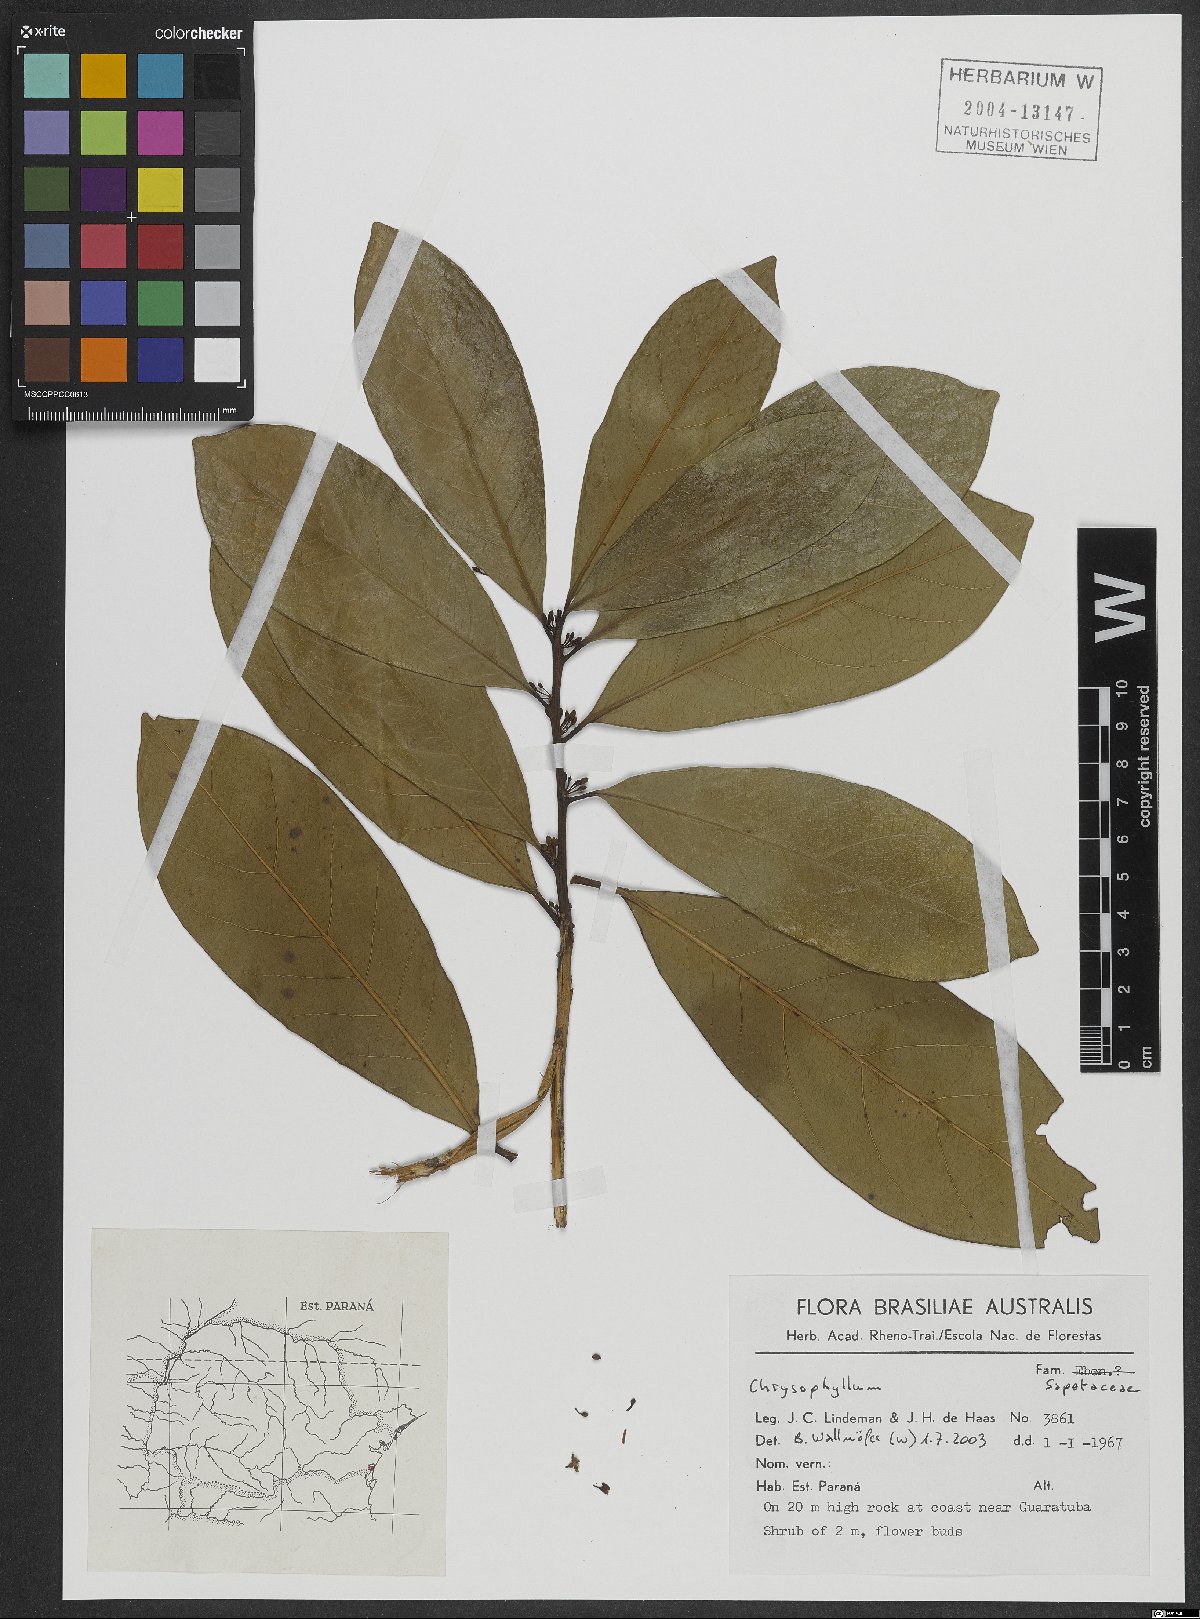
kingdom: Plantae
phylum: Tracheophyta
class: Magnoliopsida
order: Ericales
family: Sapotaceae
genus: Chrysophyllum
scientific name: Chrysophyllum
